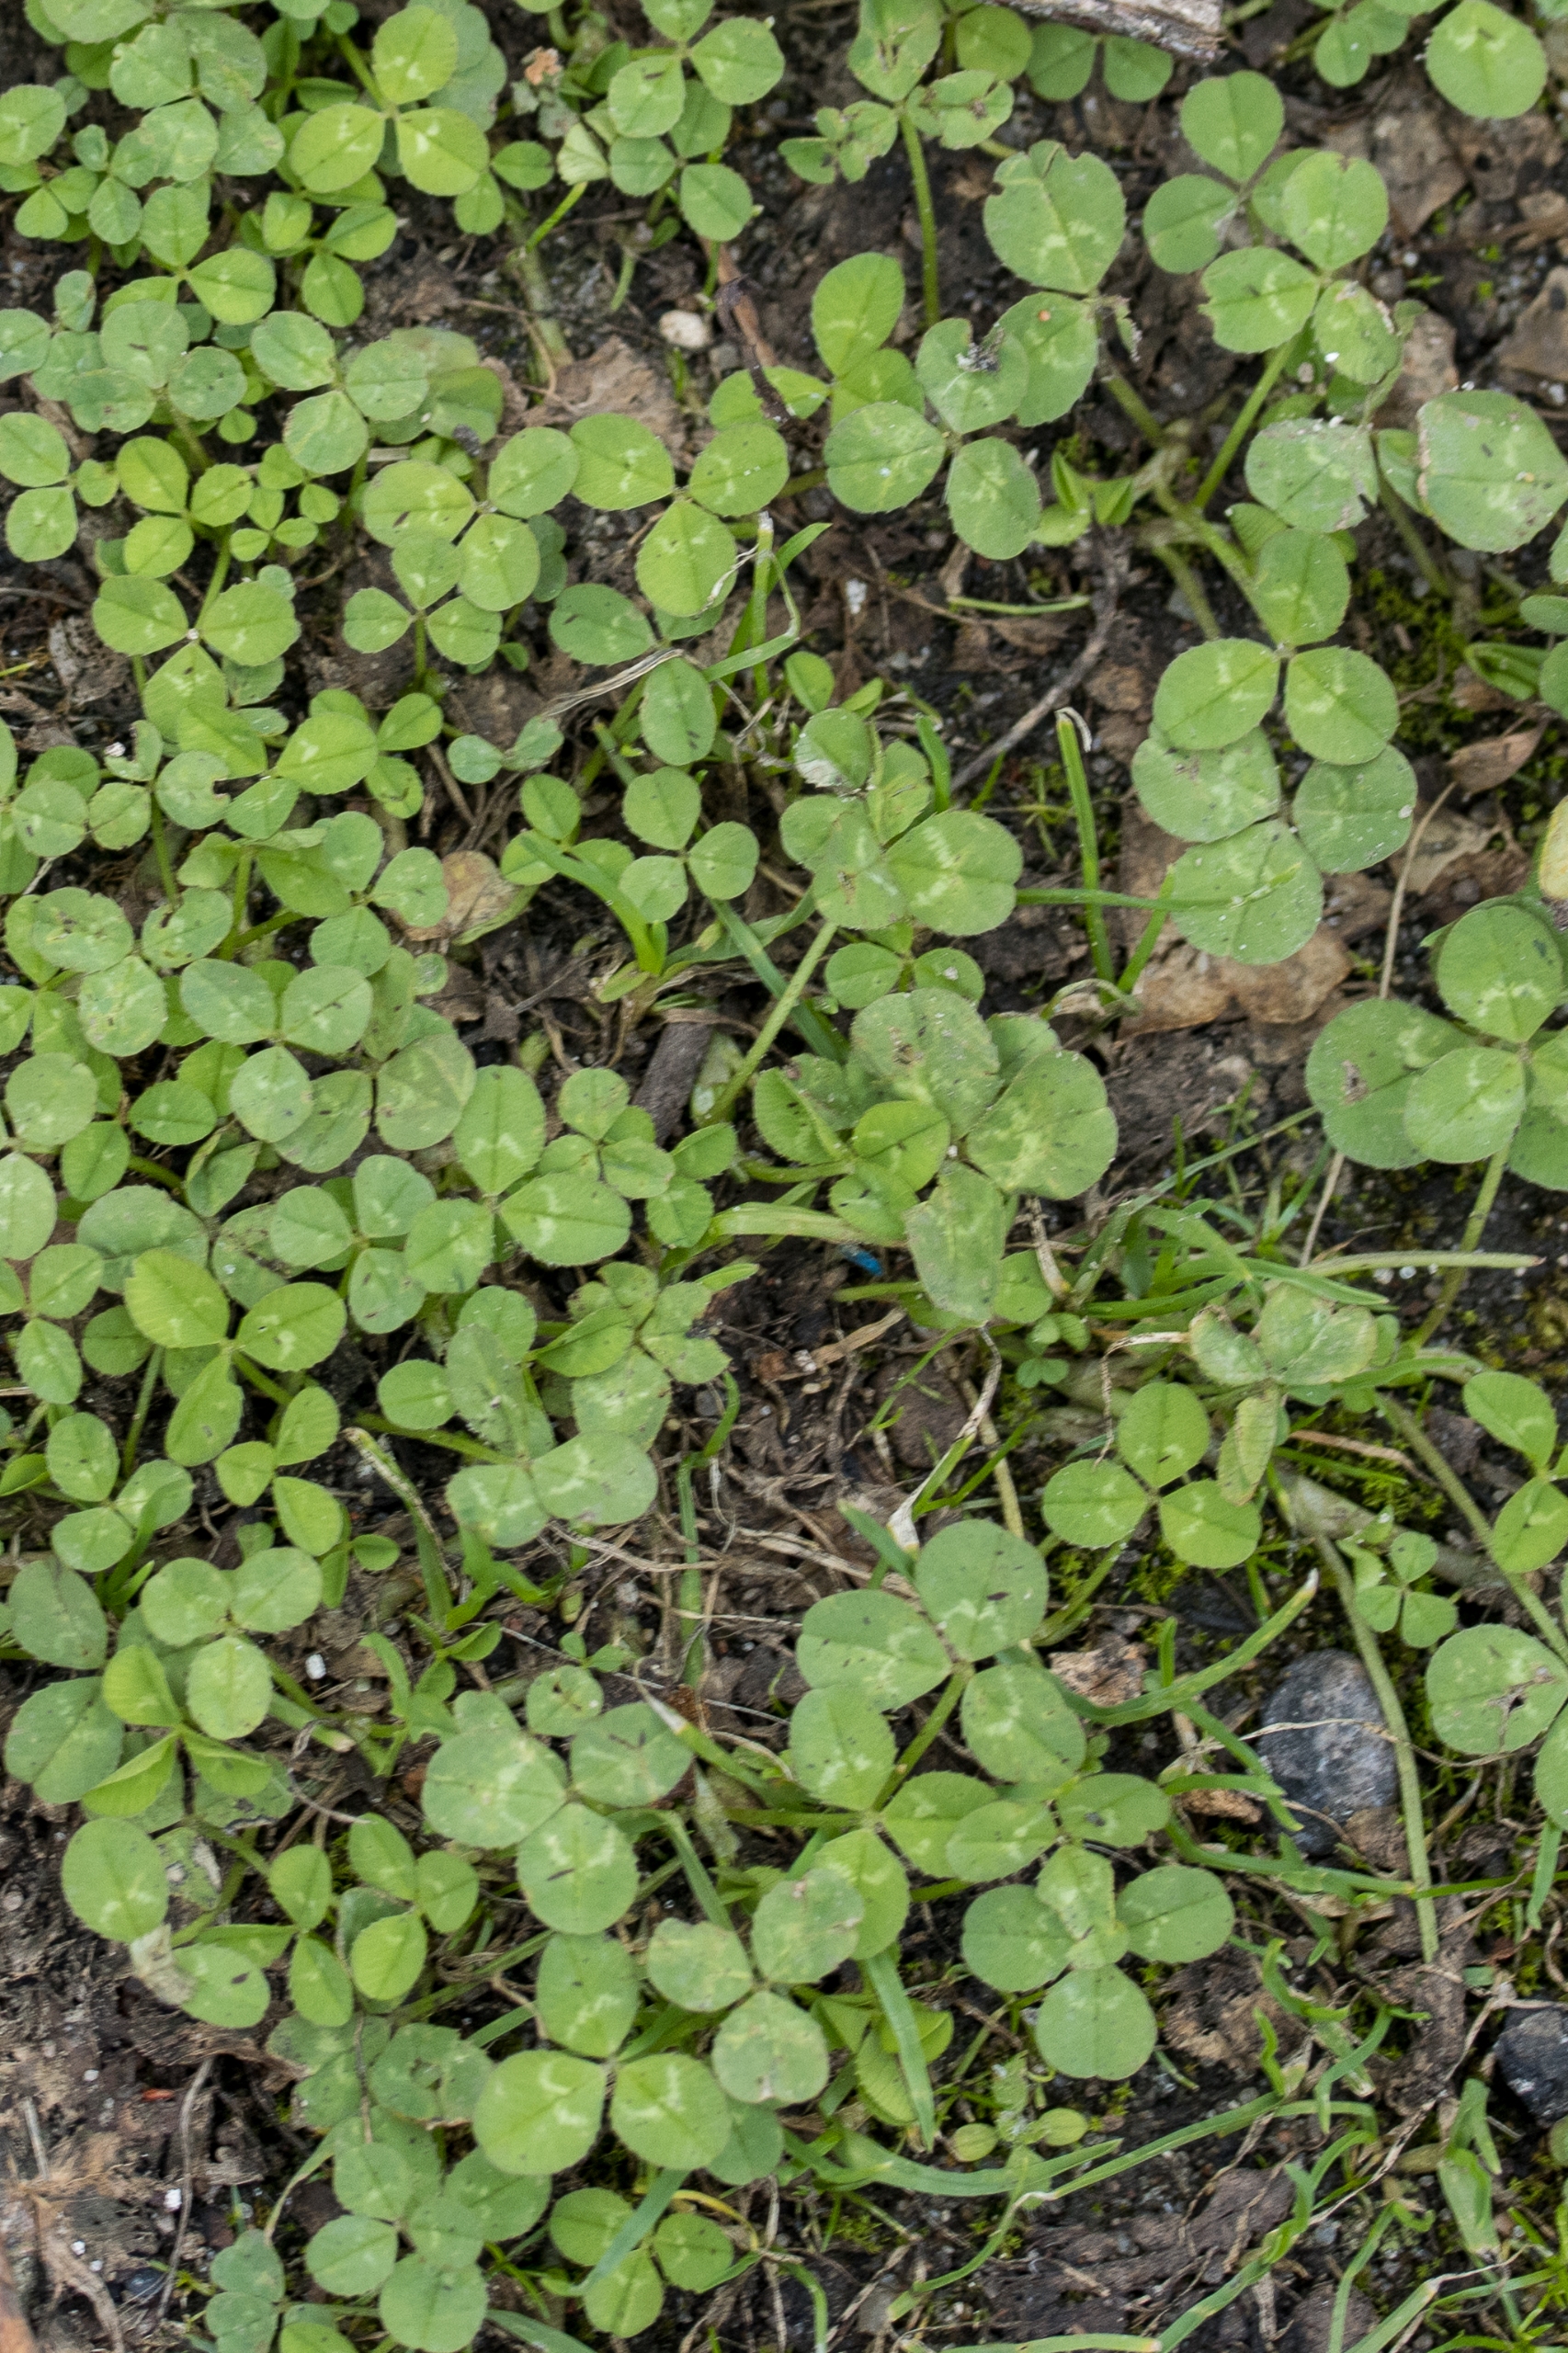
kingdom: Plantae
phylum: Tracheophyta
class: Magnoliopsida
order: Fabales
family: Fabaceae
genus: Trifolium
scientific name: Trifolium repens
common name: Hvid-kløver
